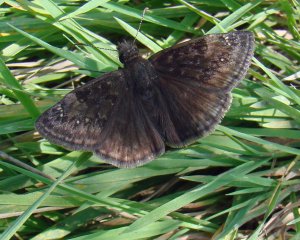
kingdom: Animalia
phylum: Arthropoda
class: Insecta
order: Lepidoptera
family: Hesperiidae
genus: Gesta
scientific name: Gesta
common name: Wild Indigo Duskywing
